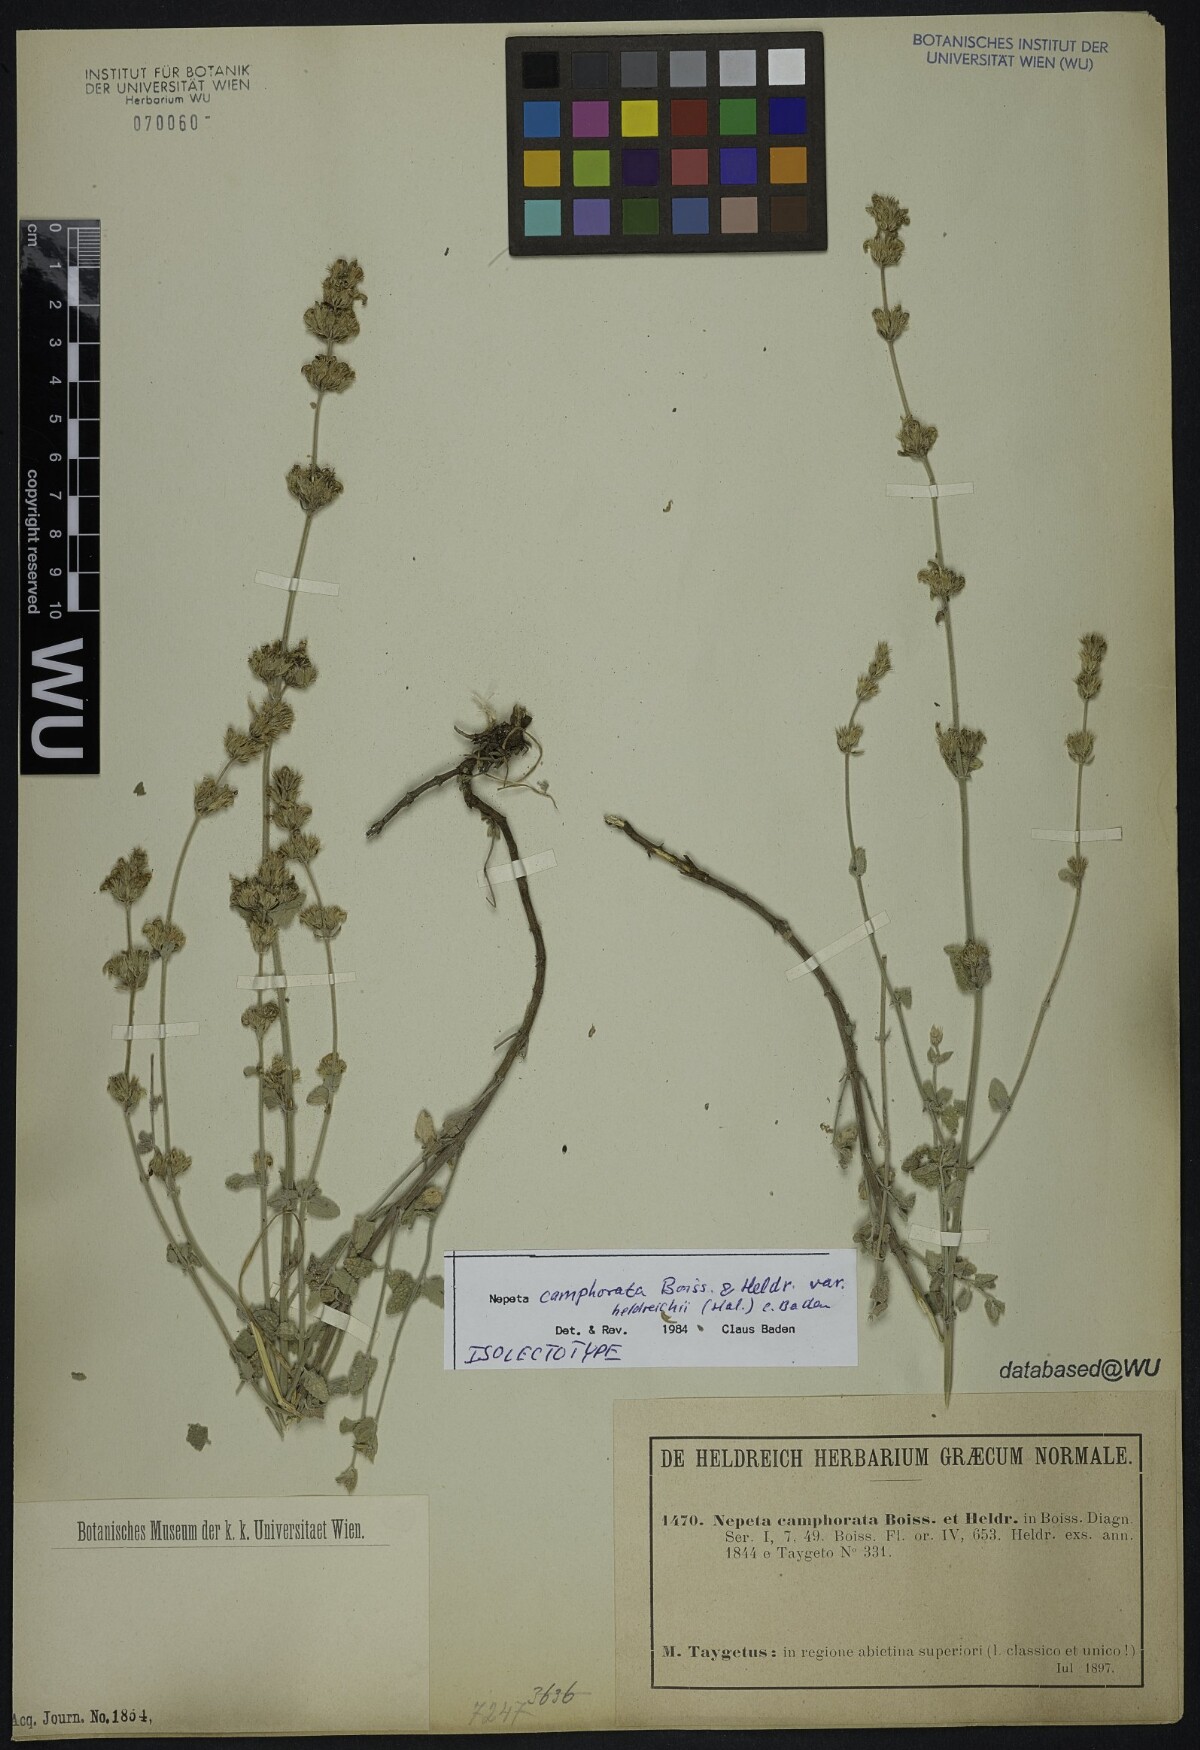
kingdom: Plantae
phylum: Tracheophyta
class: Magnoliopsida
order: Lamiales
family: Lamiaceae
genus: Nepeta
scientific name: Nepeta camphorata
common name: Camphor catmint
